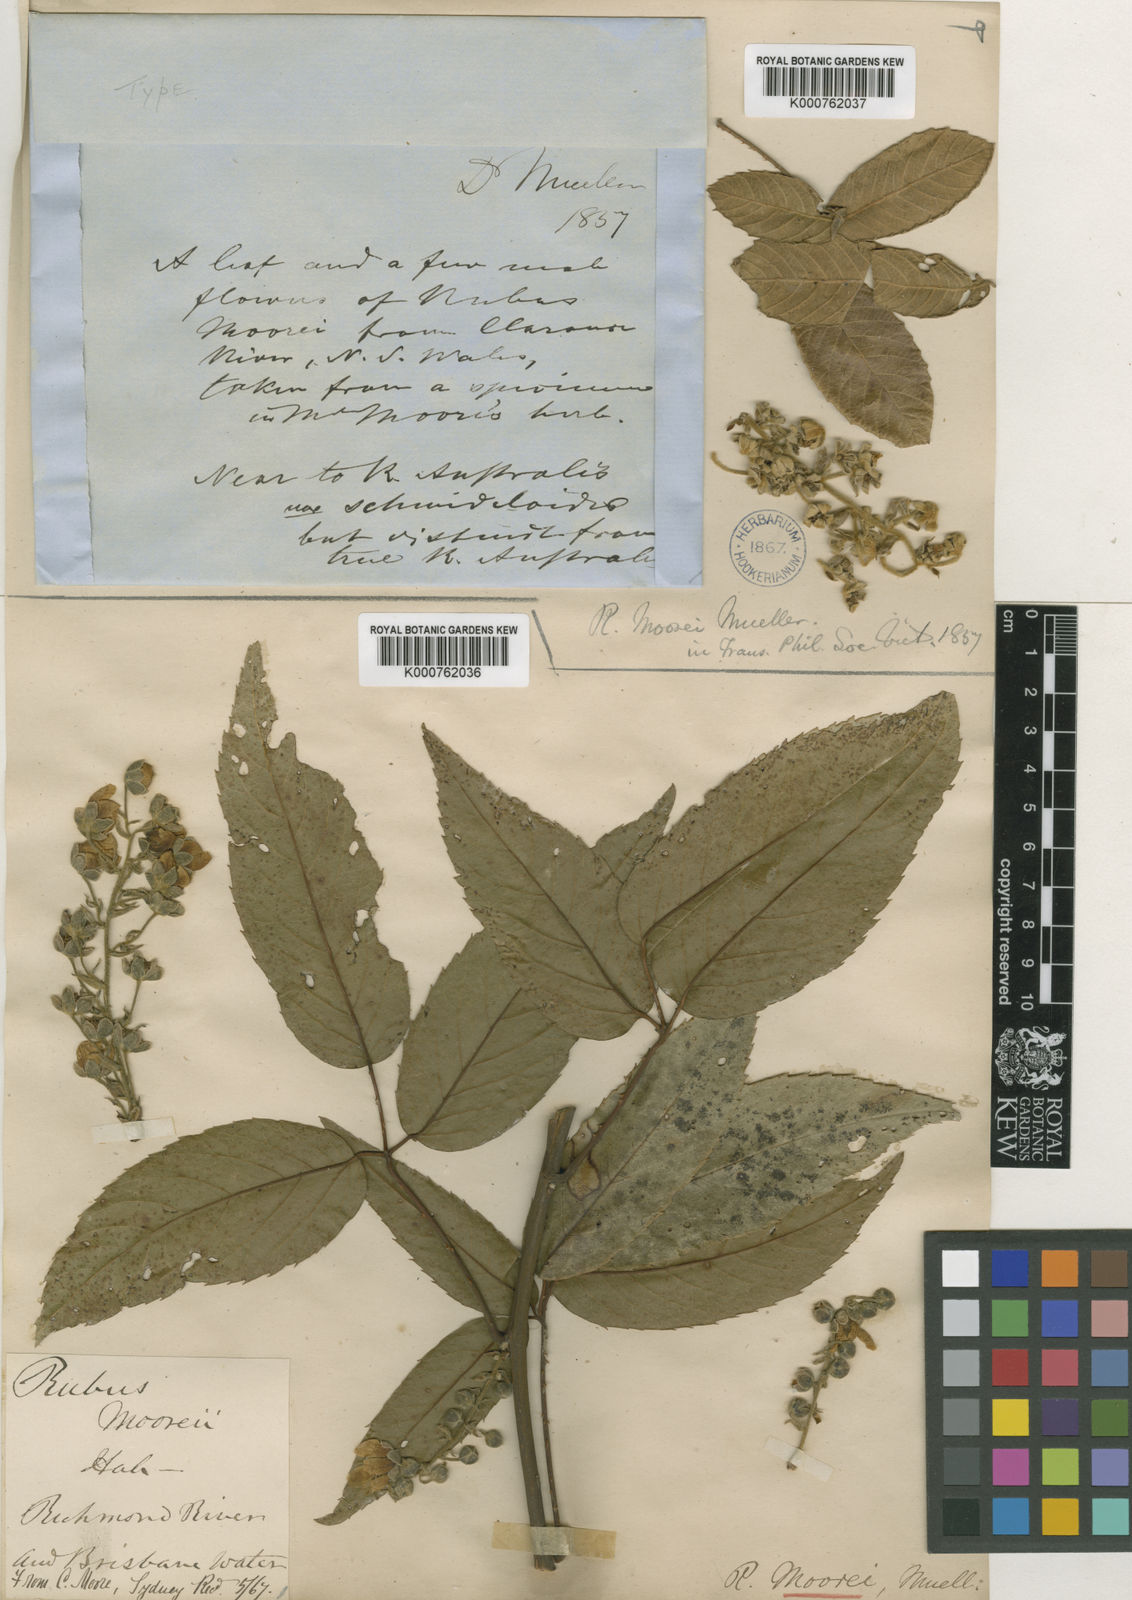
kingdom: Plantae
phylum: Tracheophyta
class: Magnoliopsida
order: Rosales
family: Rosaceae
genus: Rubus
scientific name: Rubus moorei
